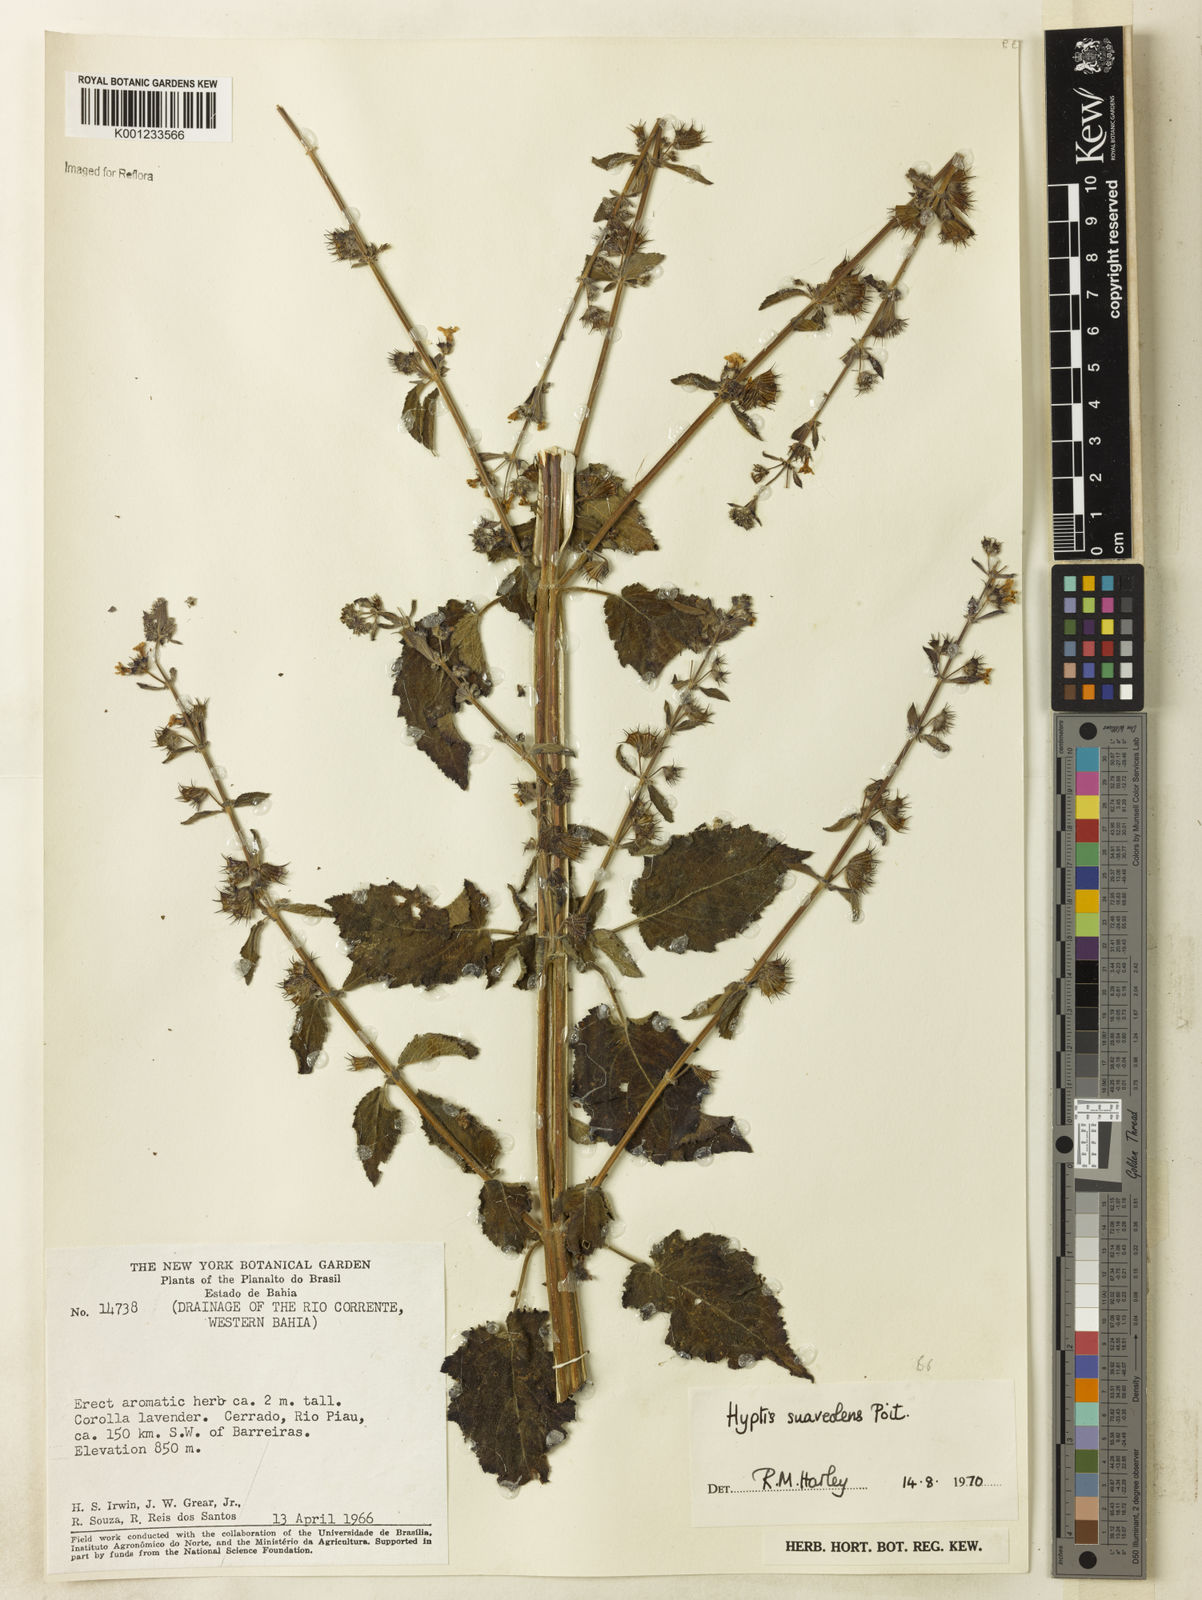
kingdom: Plantae
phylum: Tracheophyta
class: Magnoliopsida
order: Lamiales
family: Lamiaceae
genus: Mesosphaerum
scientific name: Mesosphaerum suaveolens
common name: Pignut
